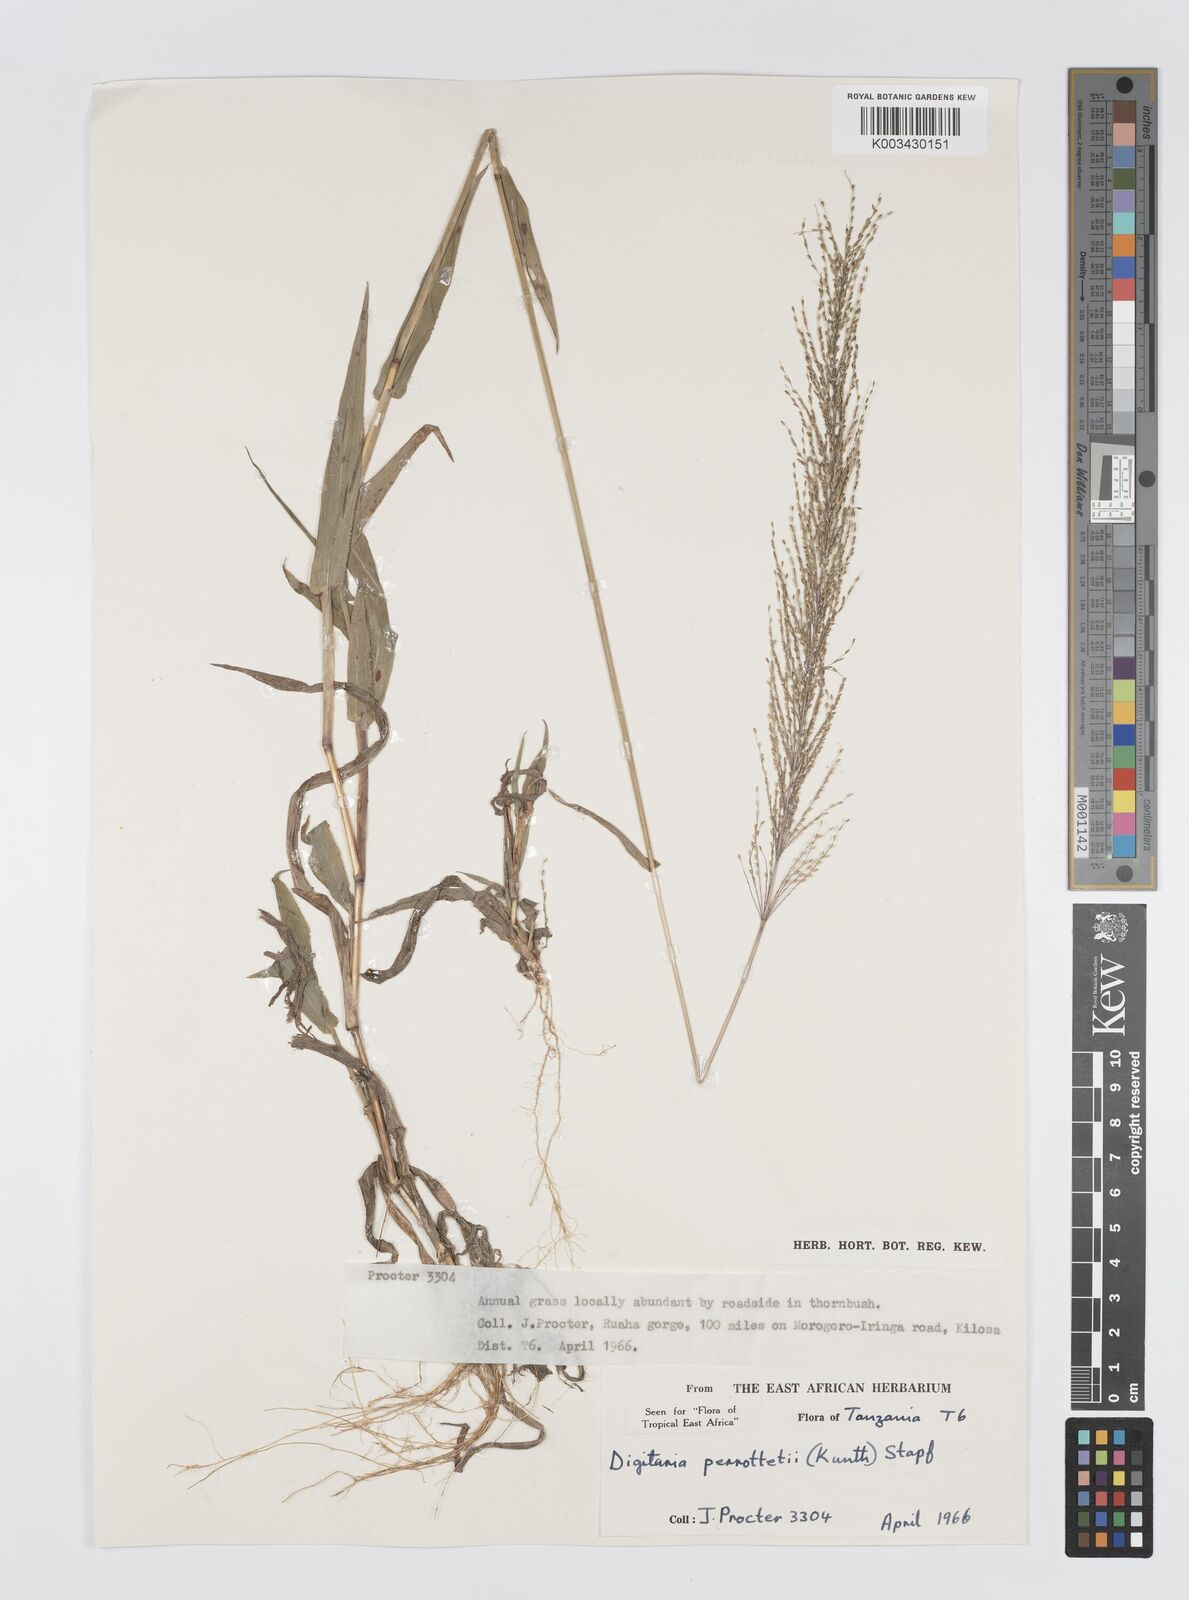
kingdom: Plantae
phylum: Tracheophyta
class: Liliopsida
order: Poales
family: Poaceae
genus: Digitaria
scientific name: Digitaria perrottetii
